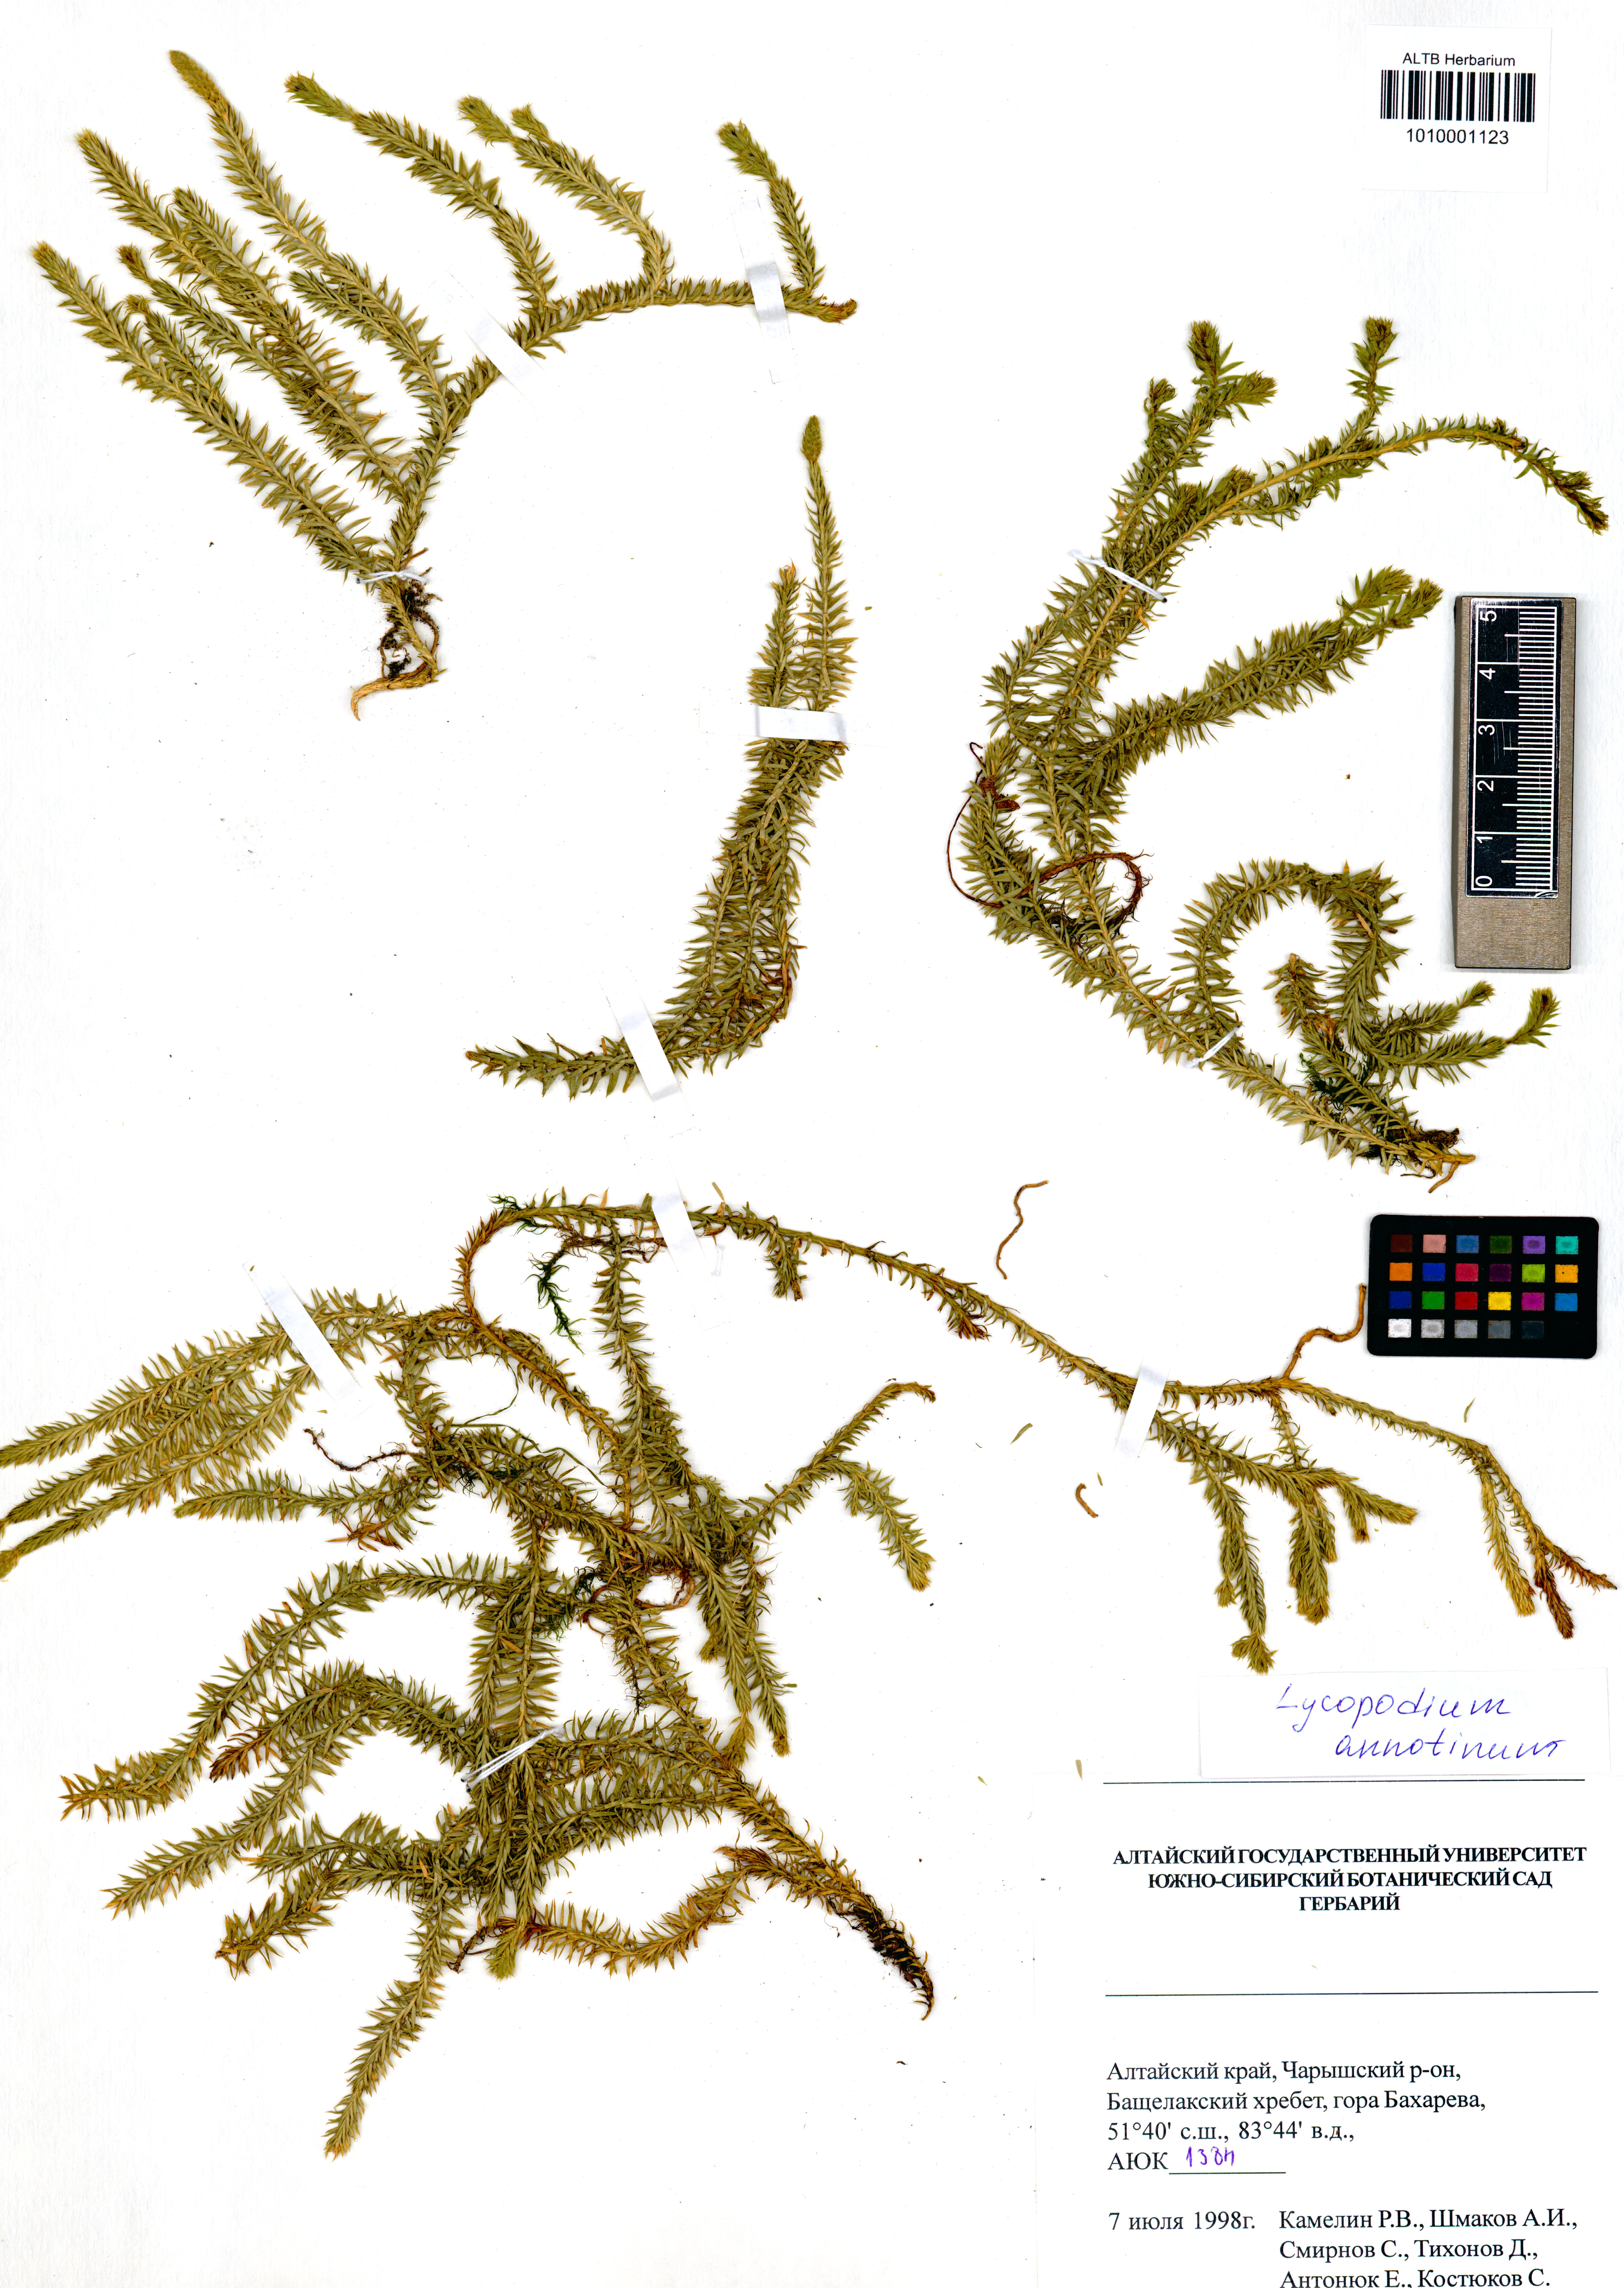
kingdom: Plantae
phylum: Tracheophyta
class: Lycopodiopsida
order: Lycopodiales
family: Lycopodiaceae
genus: Spinulum
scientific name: Spinulum annotinum
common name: Interrupted club-moss
